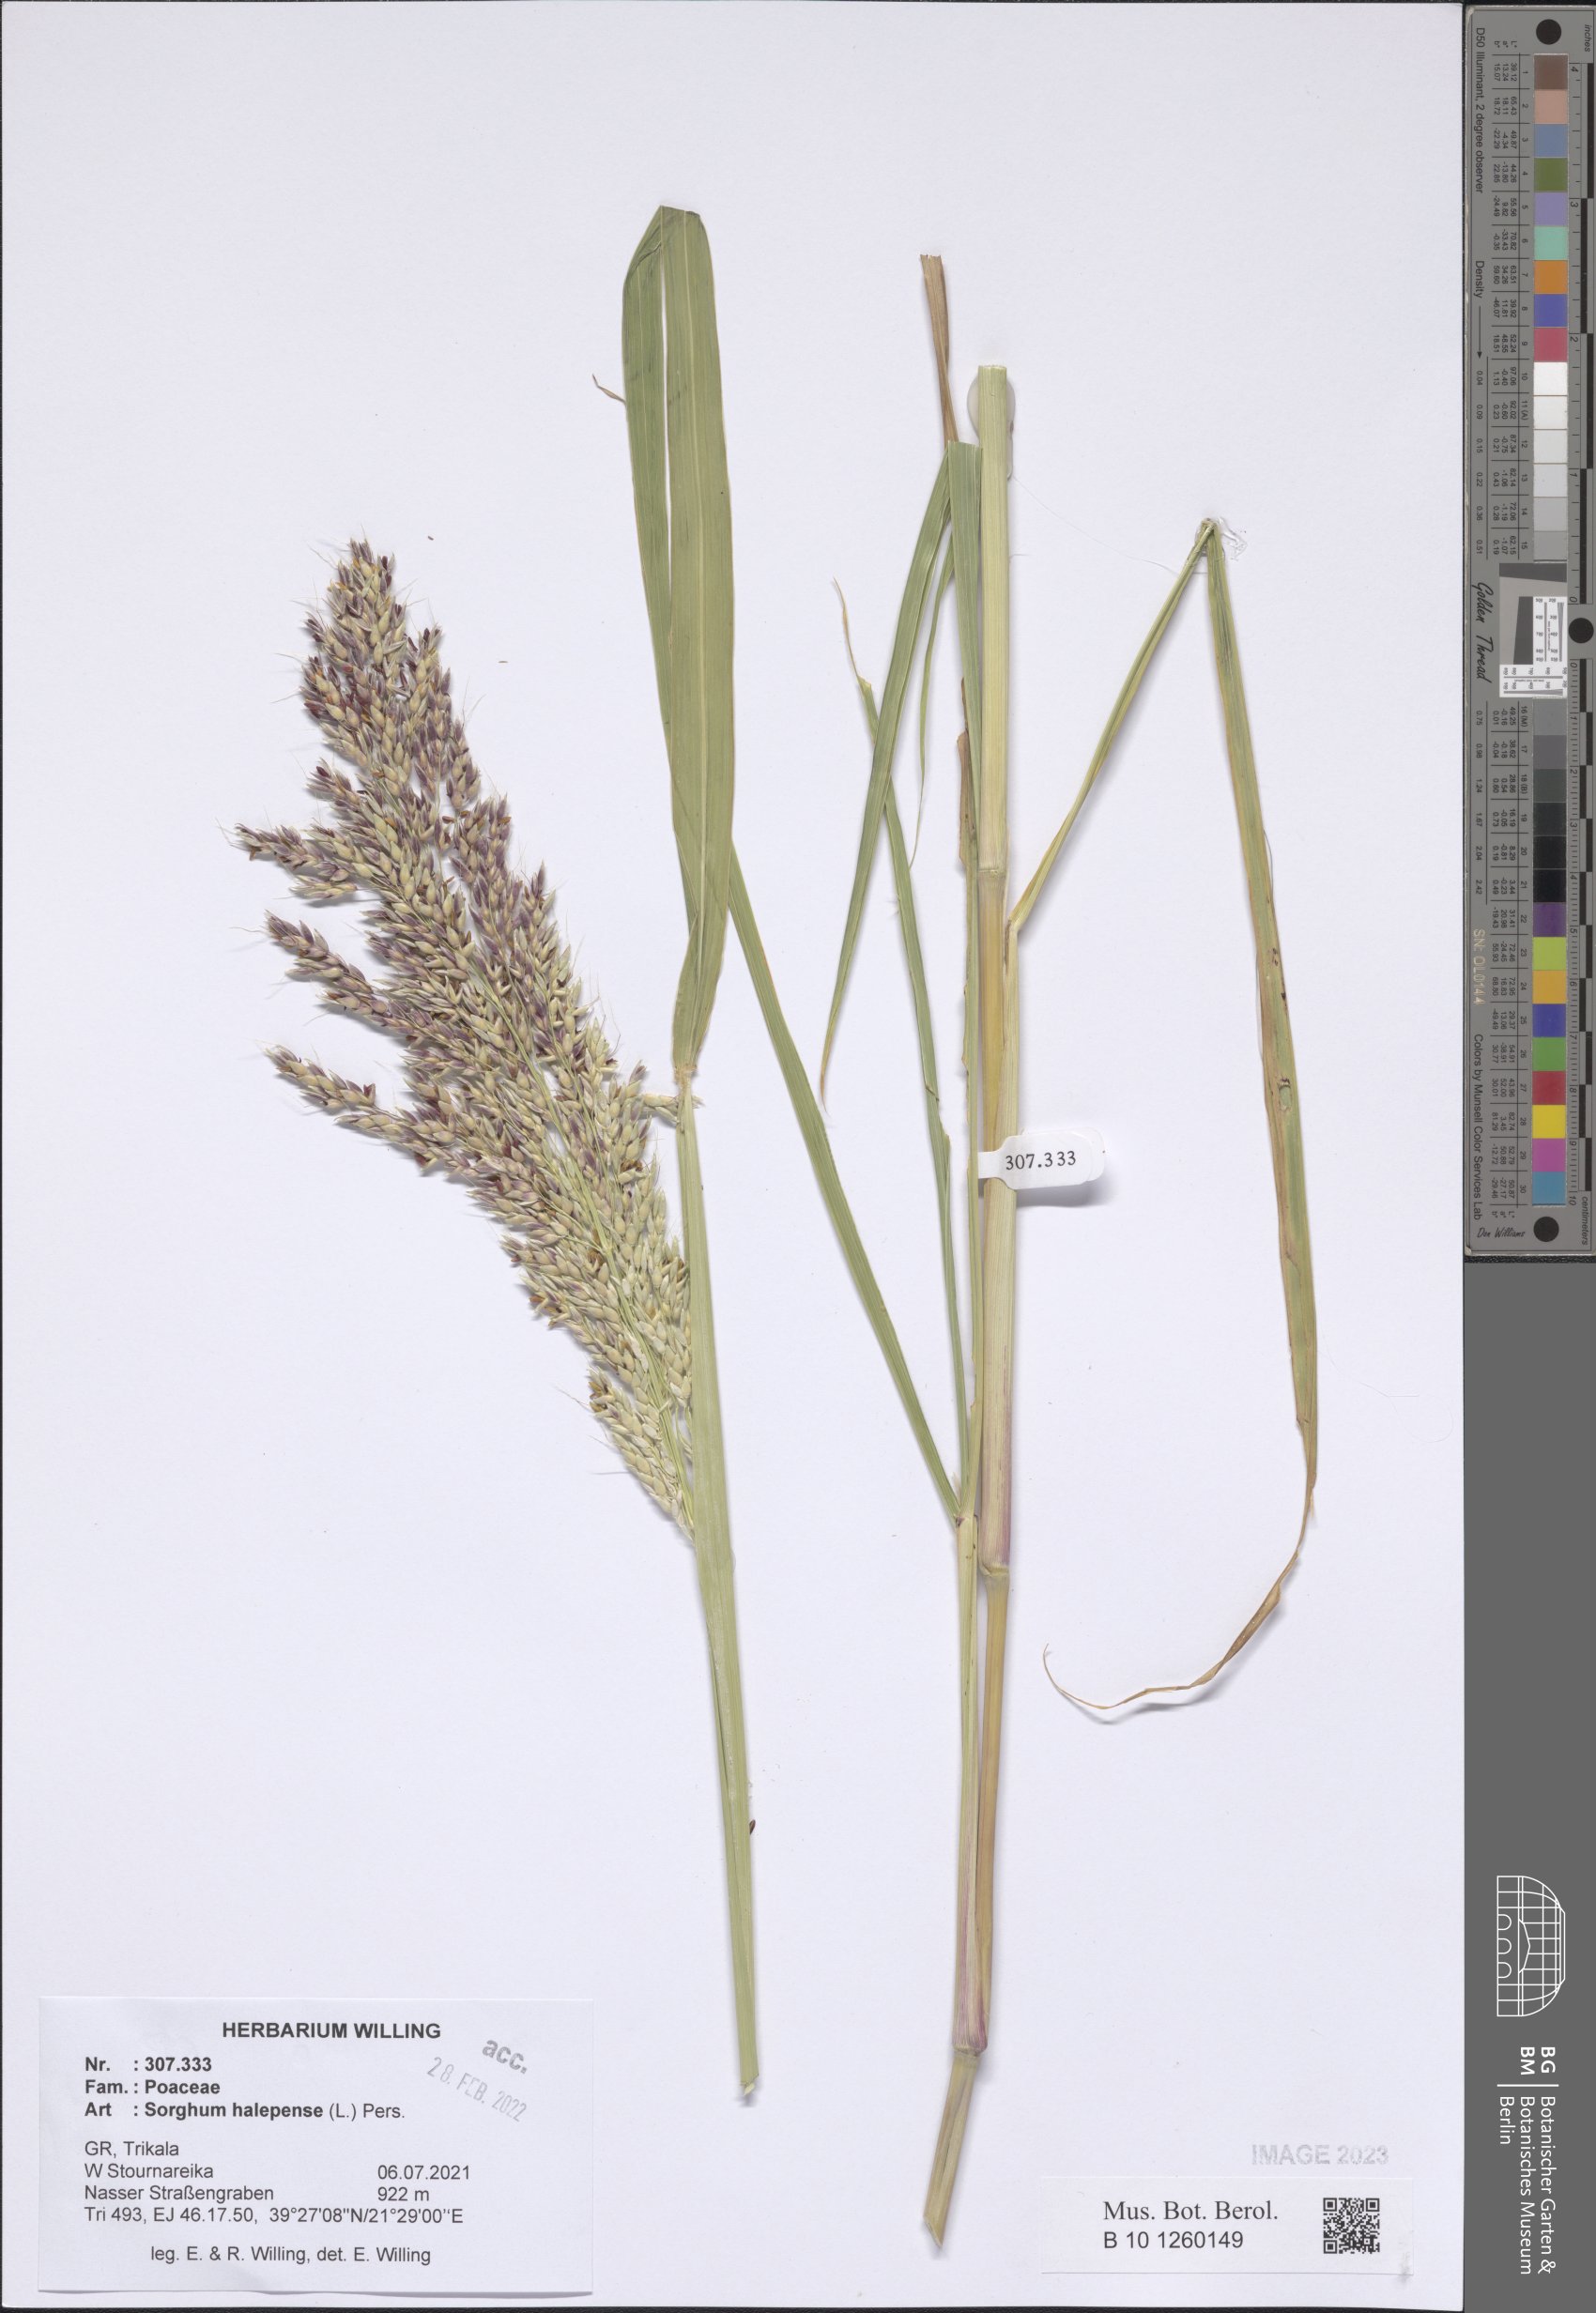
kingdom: Plantae
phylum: Tracheophyta
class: Liliopsida
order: Poales
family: Poaceae
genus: Sorghum
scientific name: Sorghum halepense
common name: Johnson-grass
